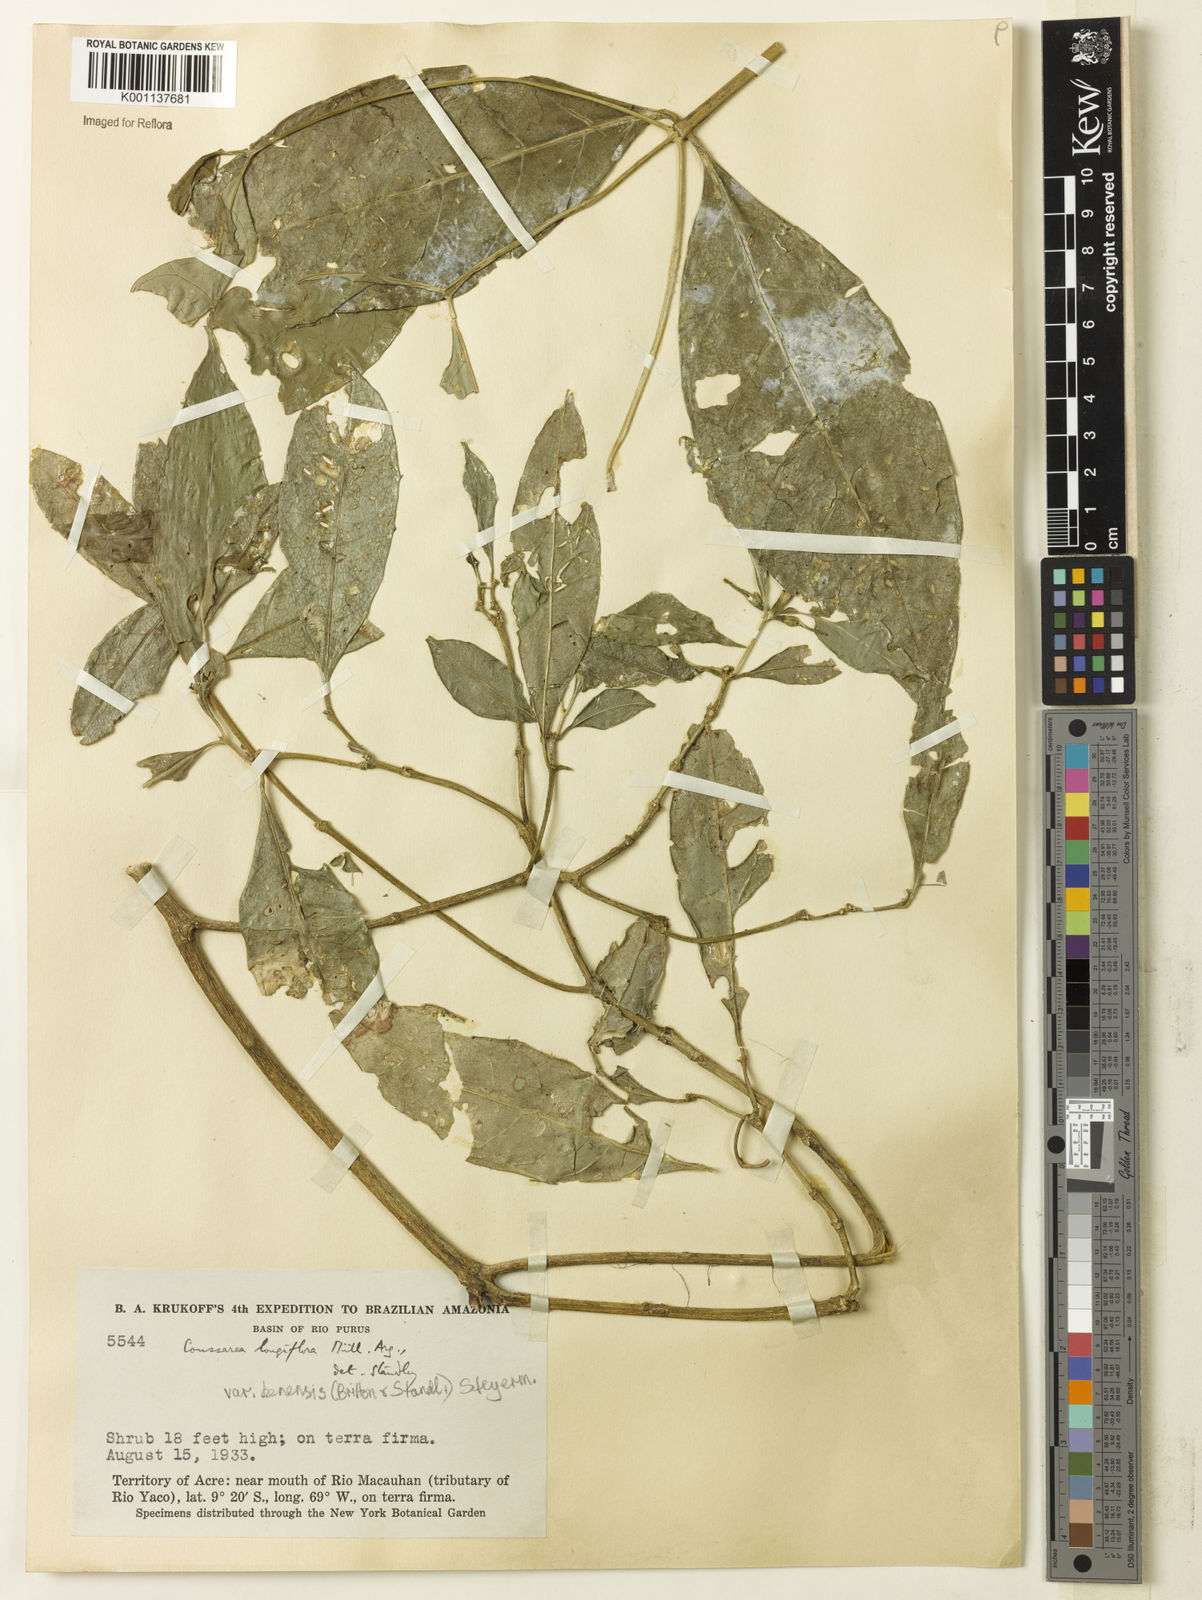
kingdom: Plantae
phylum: Tracheophyta
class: Magnoliopsida
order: Gentianales
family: Rubiaceae
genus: Coussarea
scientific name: Coussarea
